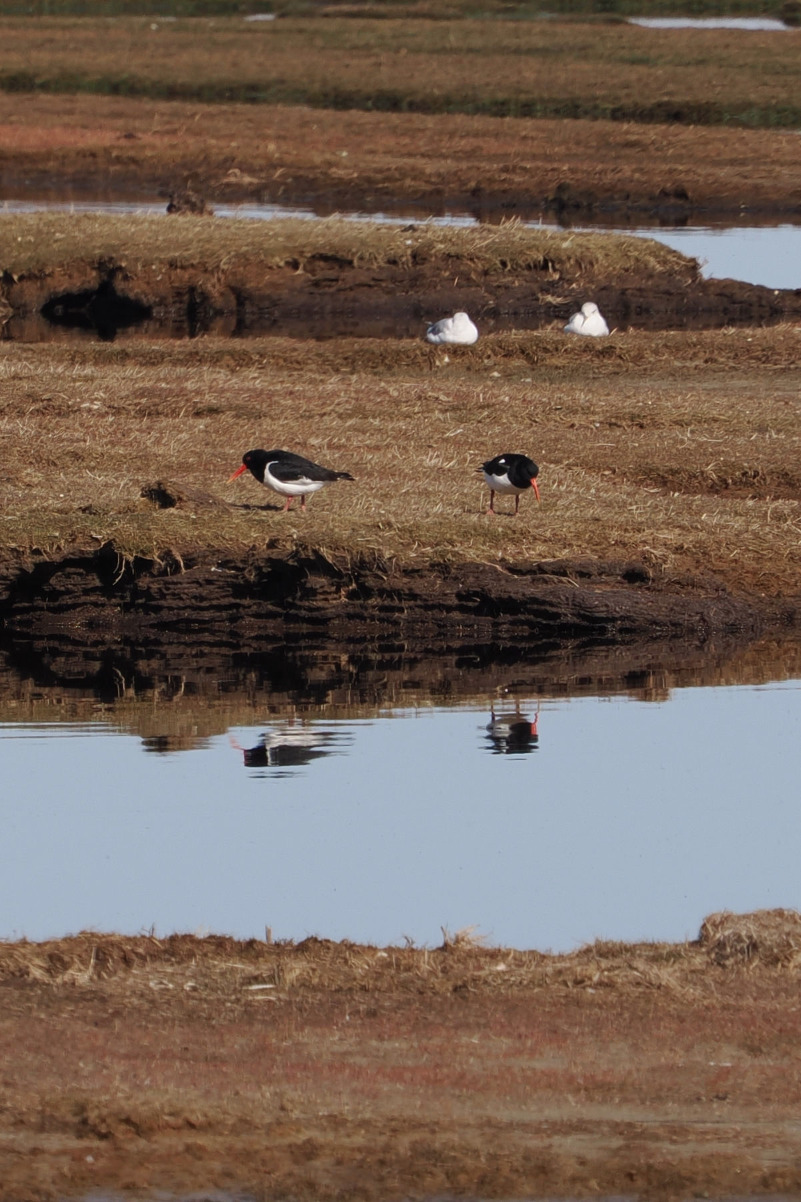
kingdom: Animalia
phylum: Chordata
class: Aves
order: Charadriiformes
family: Haematopodidae
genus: Haematopus
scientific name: Haematopus ostralegus
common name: Strandskade
